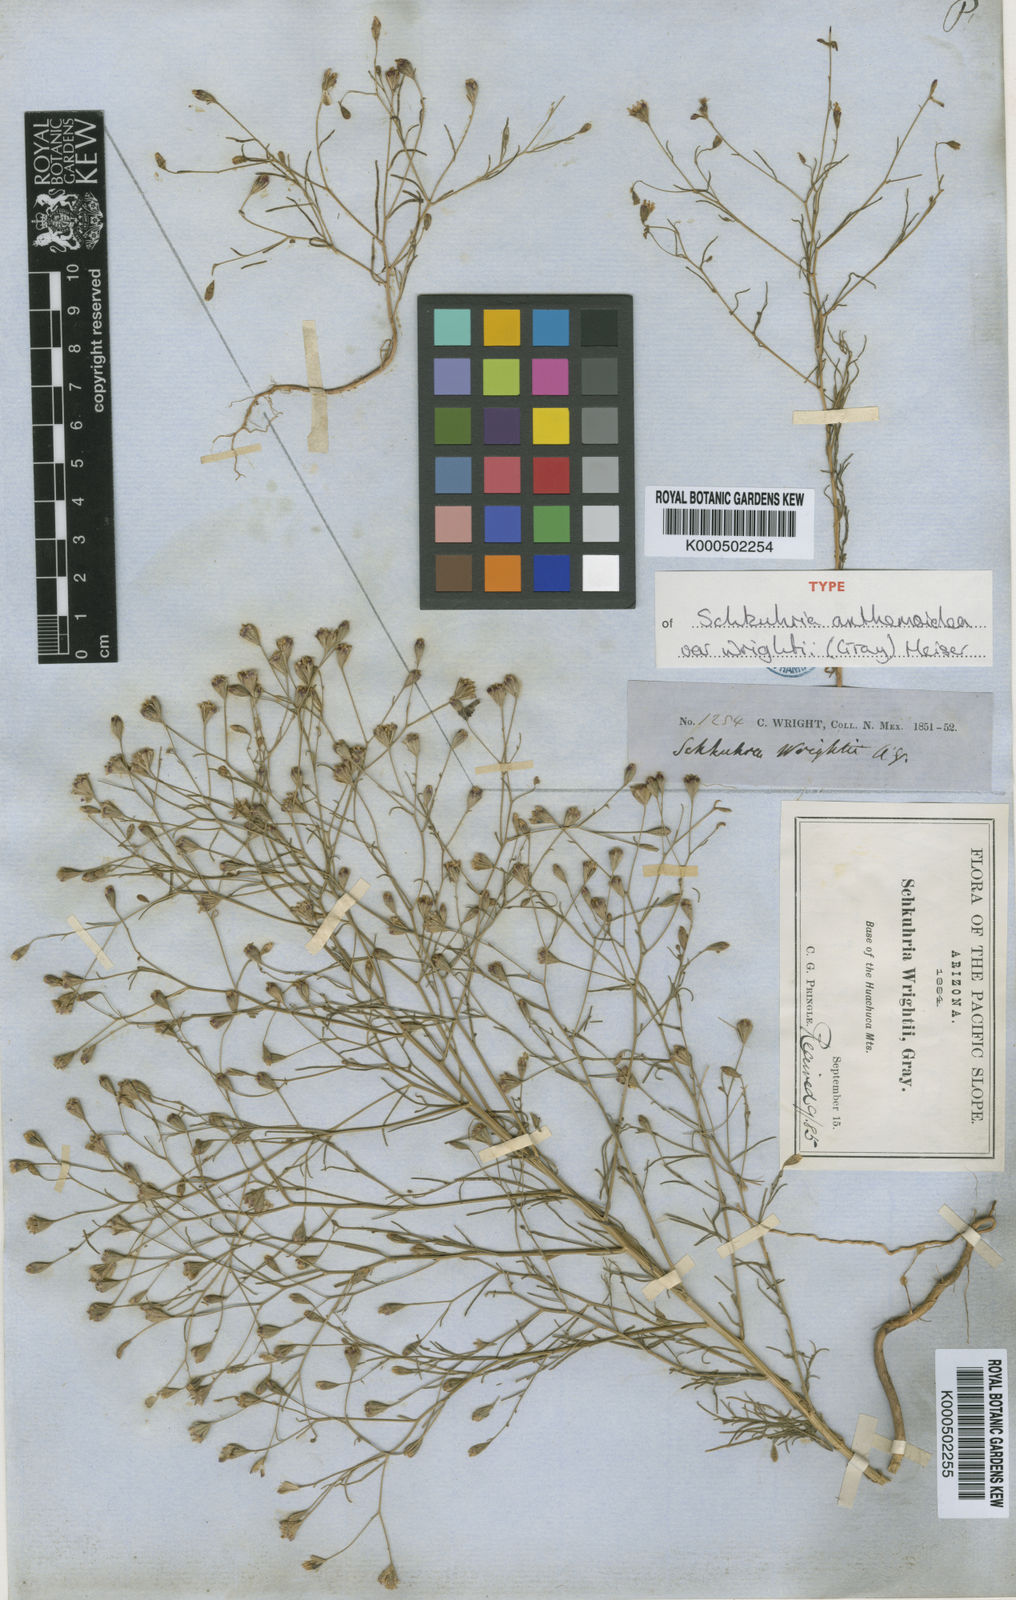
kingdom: Plantae
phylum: Tracheophyta
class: Magnoliopsida
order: Asterales
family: Asteraceae
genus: Achyropappus
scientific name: Achyropappus anthemoides
